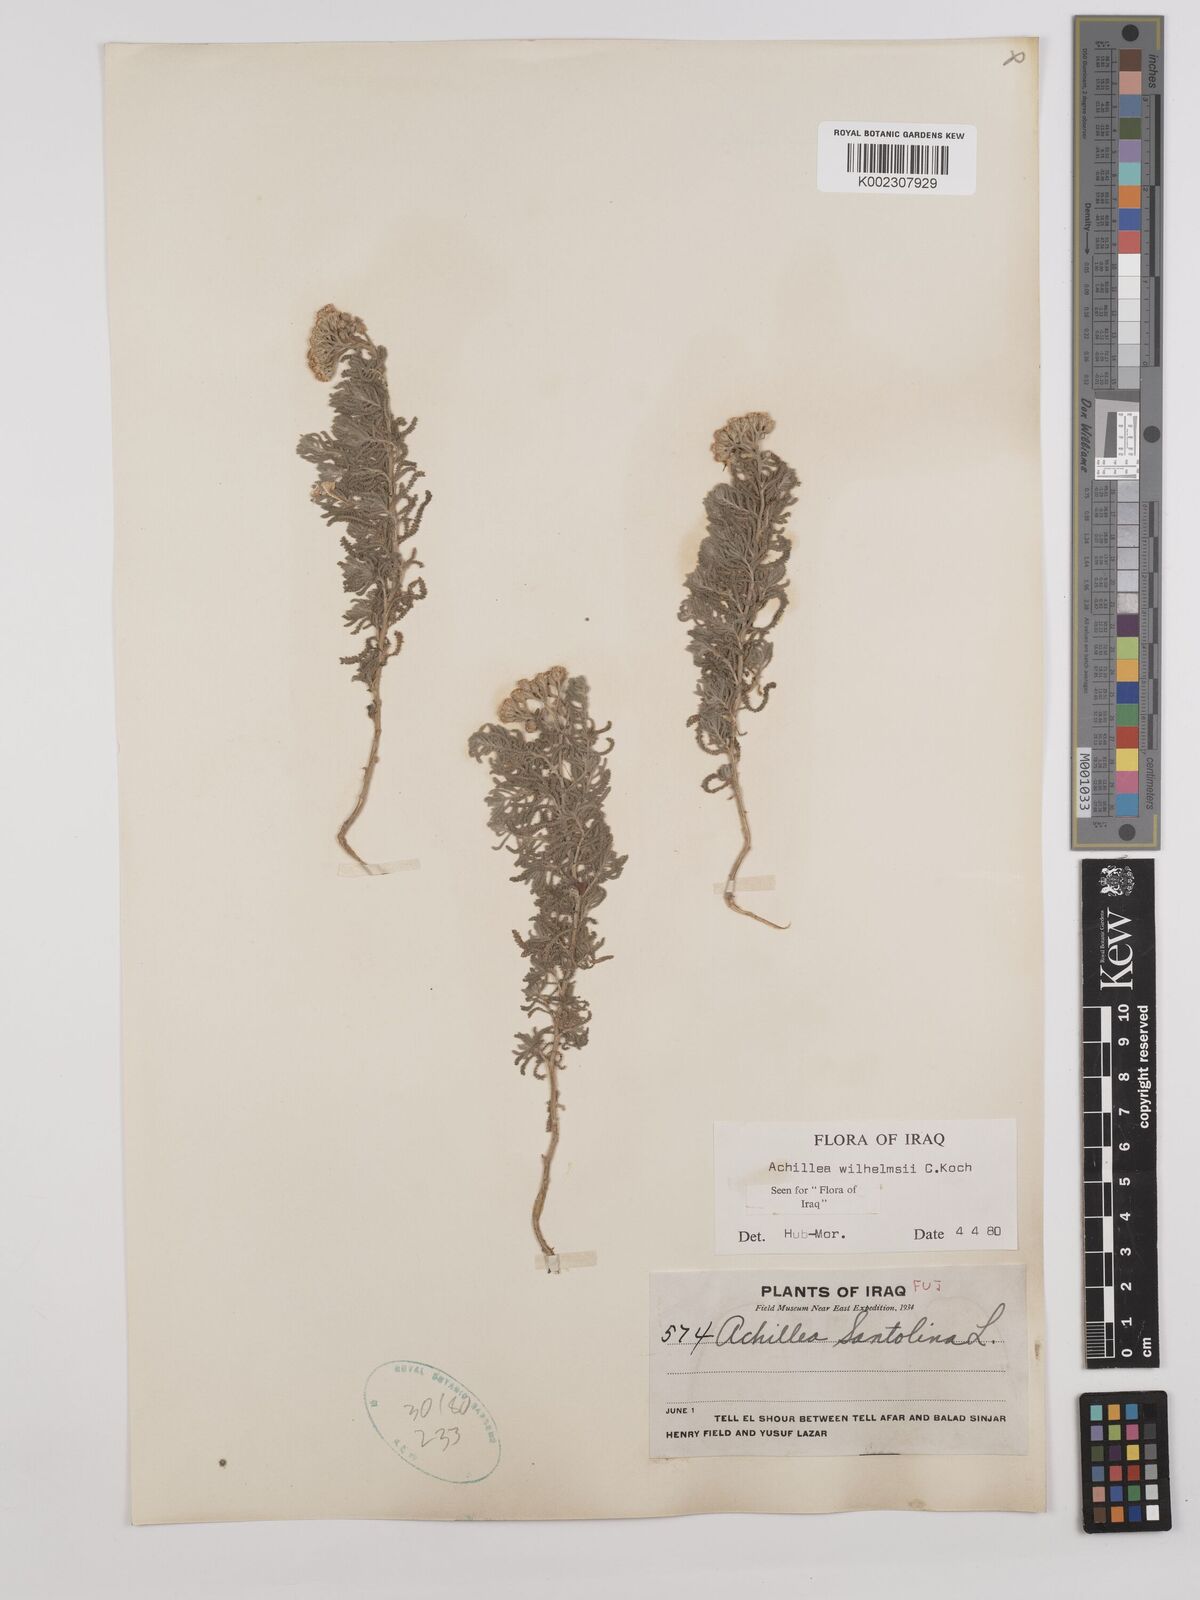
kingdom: Plantae
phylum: Tracheophyta
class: Magnoliopsida
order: Asterales
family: Asteraceae
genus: Achillea
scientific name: Achillea wilhelmsii
